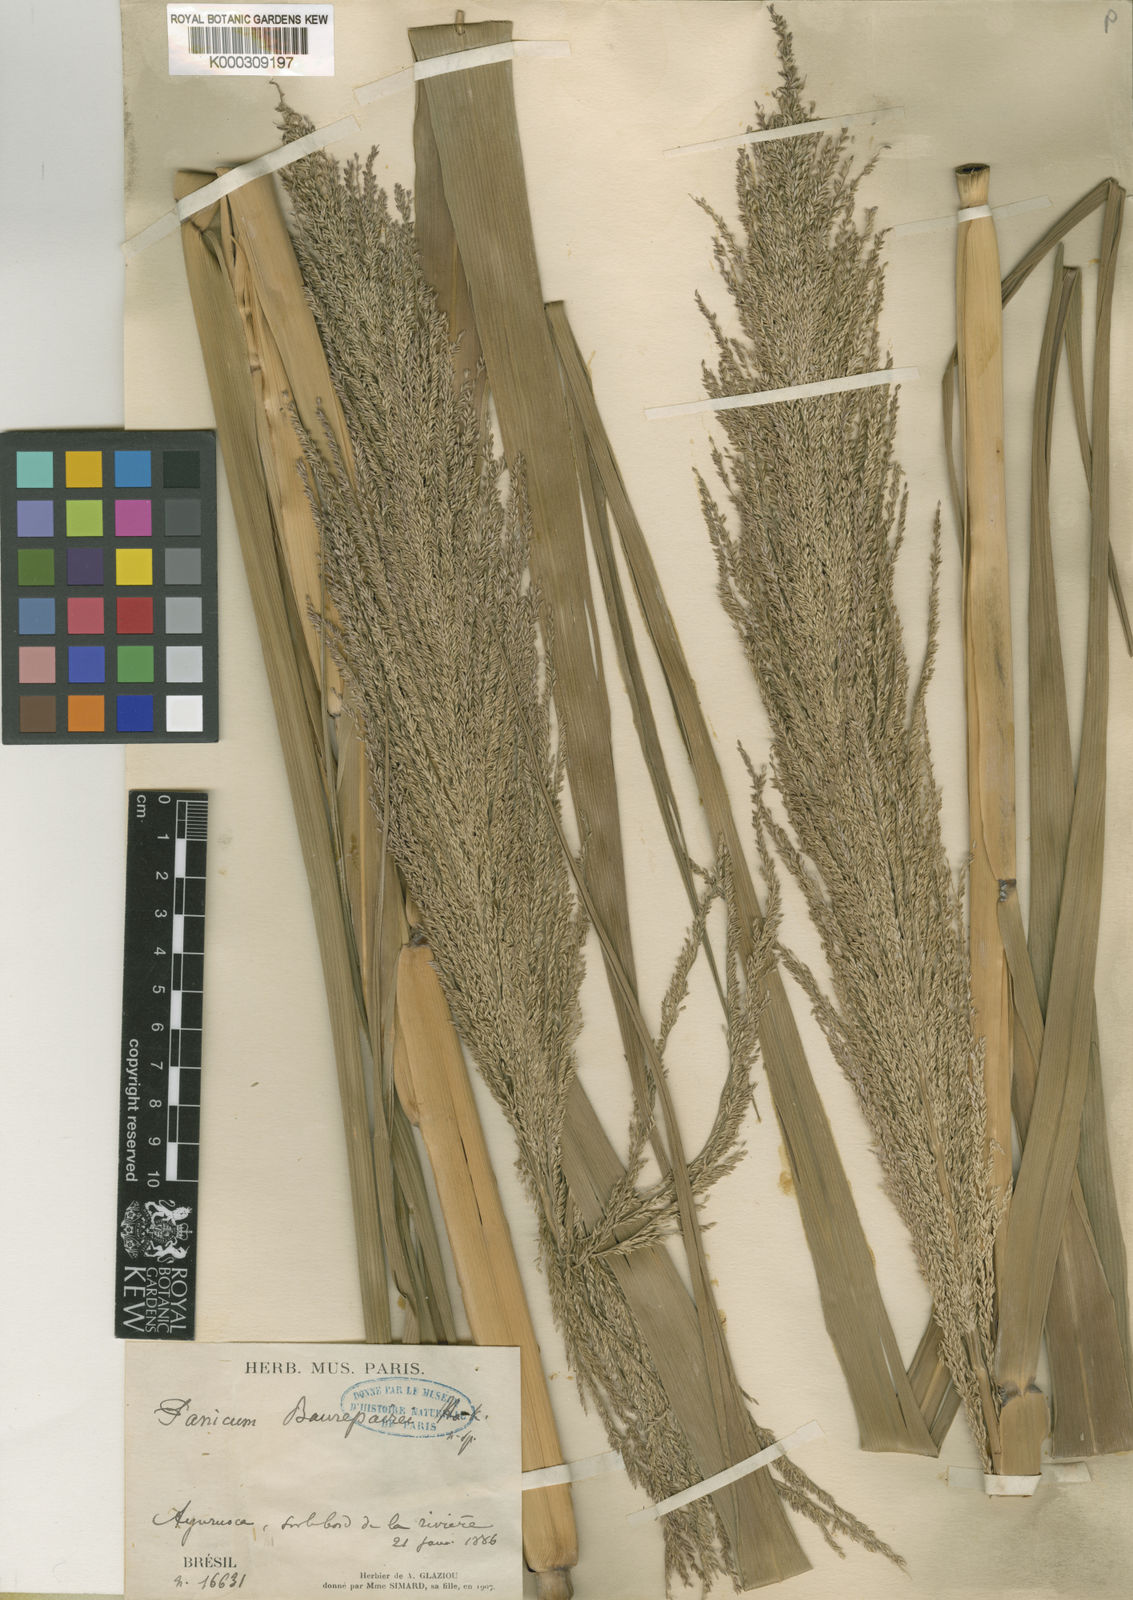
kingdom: Plantae
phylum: Tracheophyta
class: Liliopsida
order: Poales
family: Poaceae
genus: Hymenachne
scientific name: Hymenachne pernambucensis
